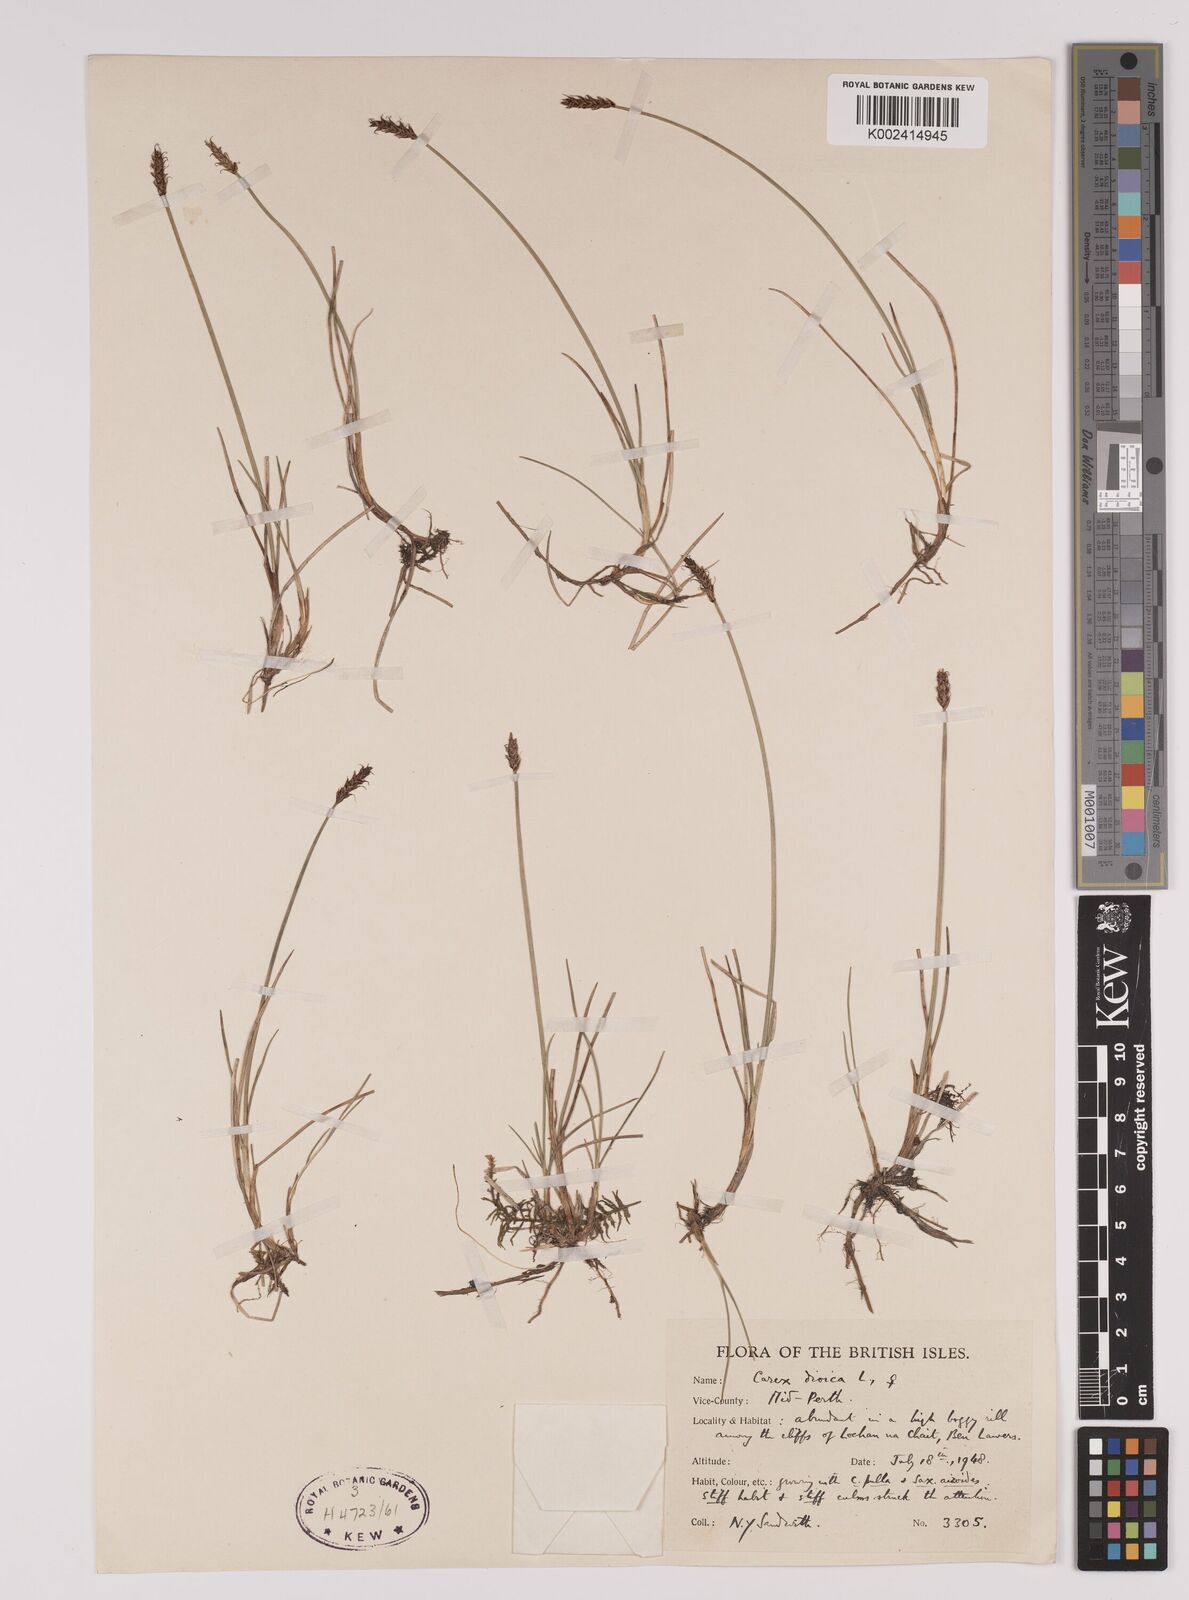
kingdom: Plantae
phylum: Tracheophyta
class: Liliopsida
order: Poales
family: Cyperaceae
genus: Carex
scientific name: Carex dioica
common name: Dioecious sedge
